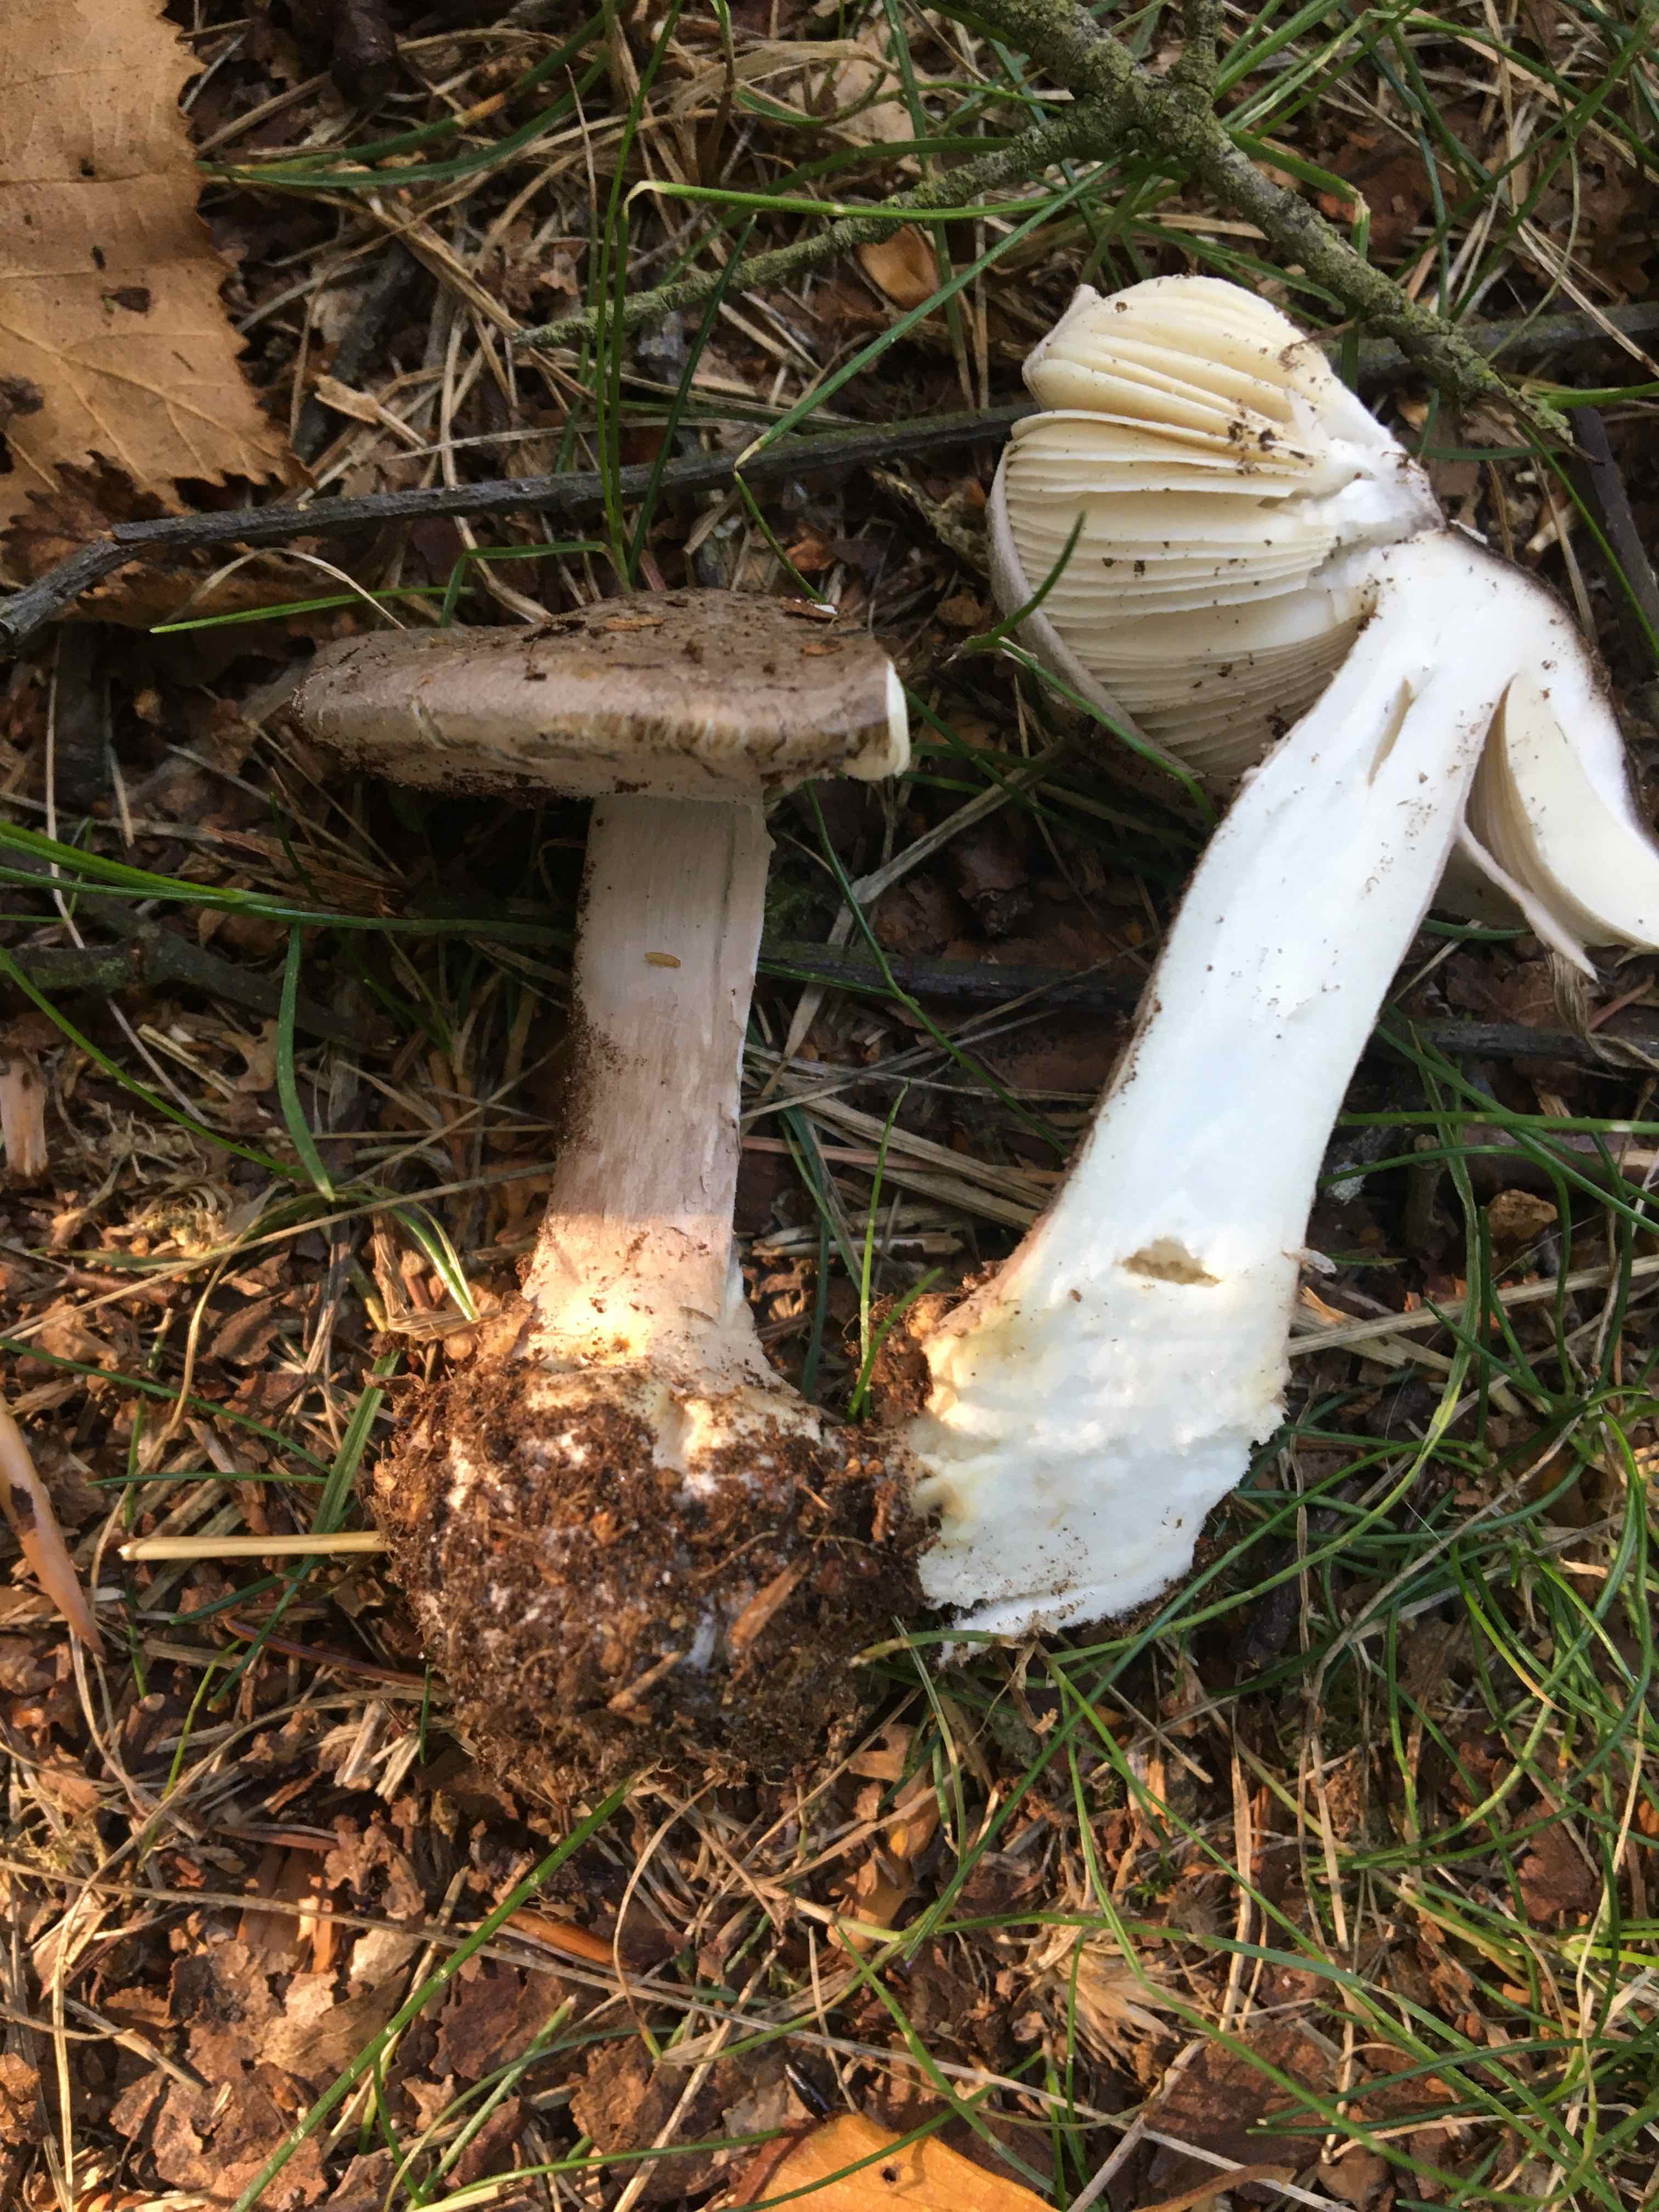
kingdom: Fungi
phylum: Basidiomycota
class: Agaricomycetes
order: Agaricales
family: Amanitaceae
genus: Amanita
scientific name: Amanita porphyria
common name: porfyr-fluesvamp
